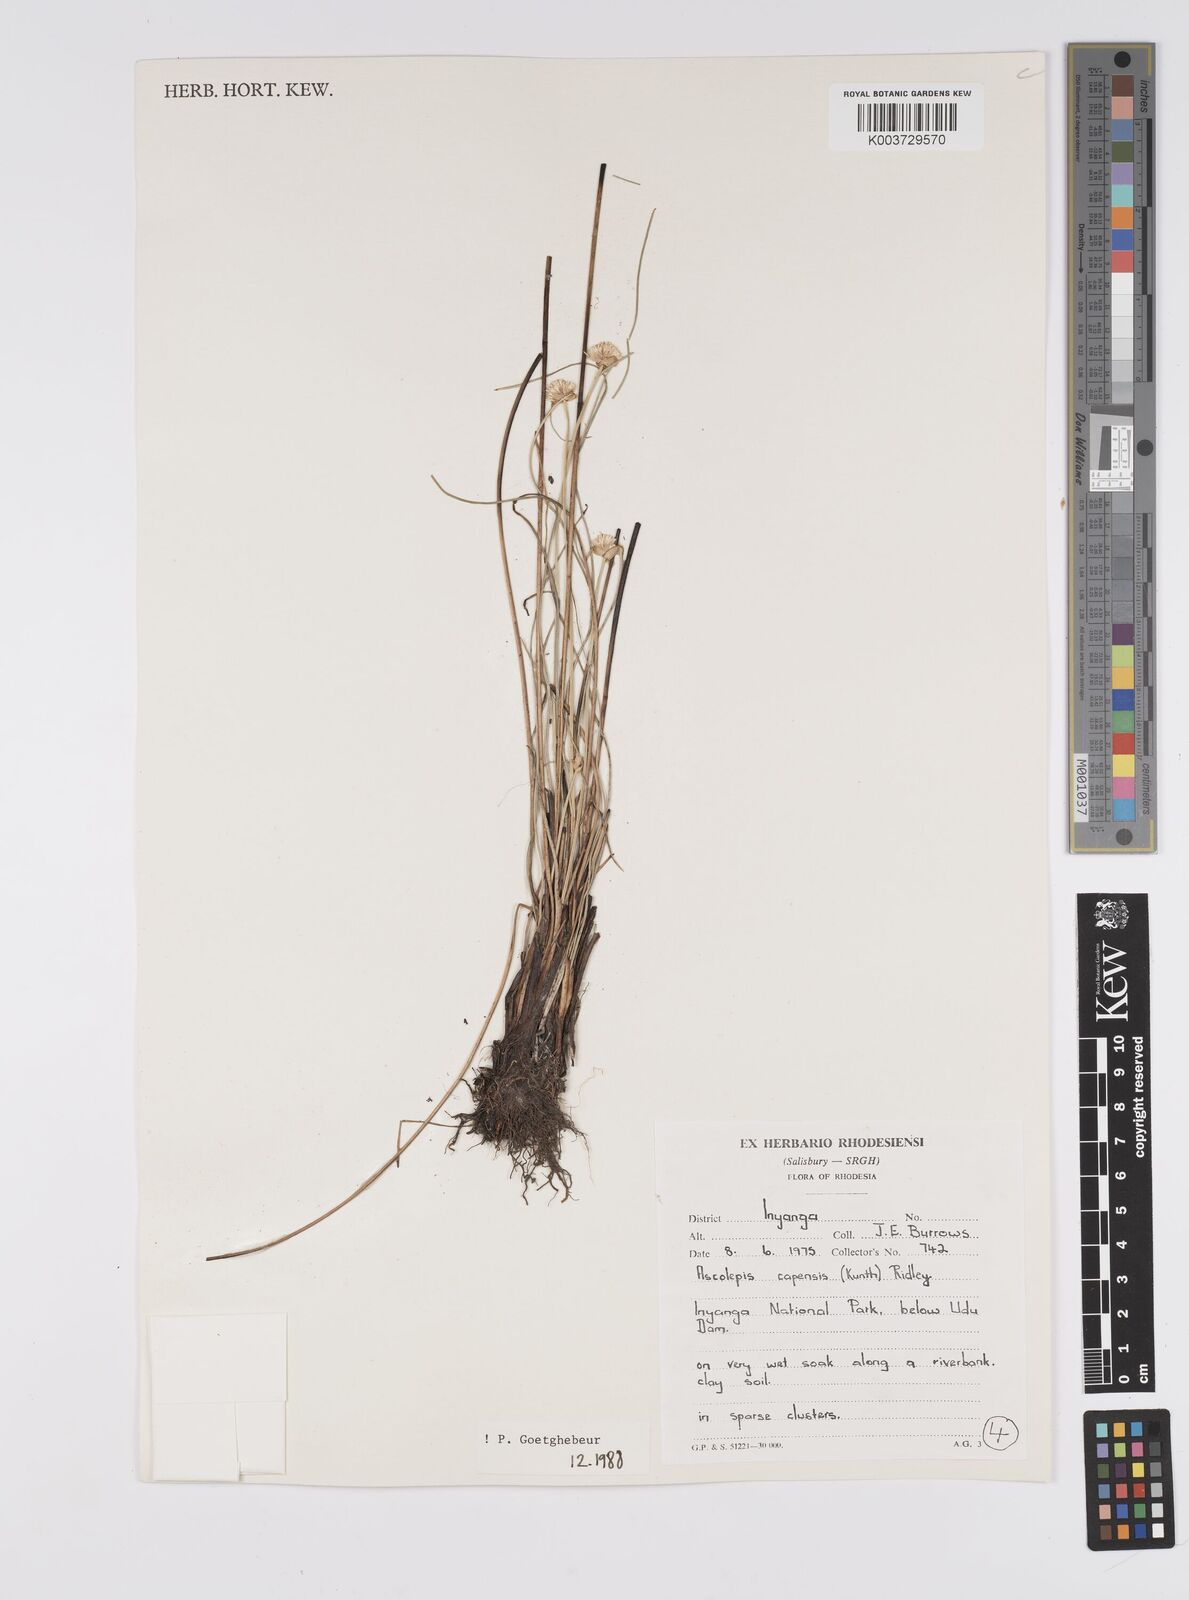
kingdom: Plantae
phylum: Tracheophyta
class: Liliopsida
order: Poales
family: Cyperaceae
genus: Cyperus
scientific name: Cyperus
